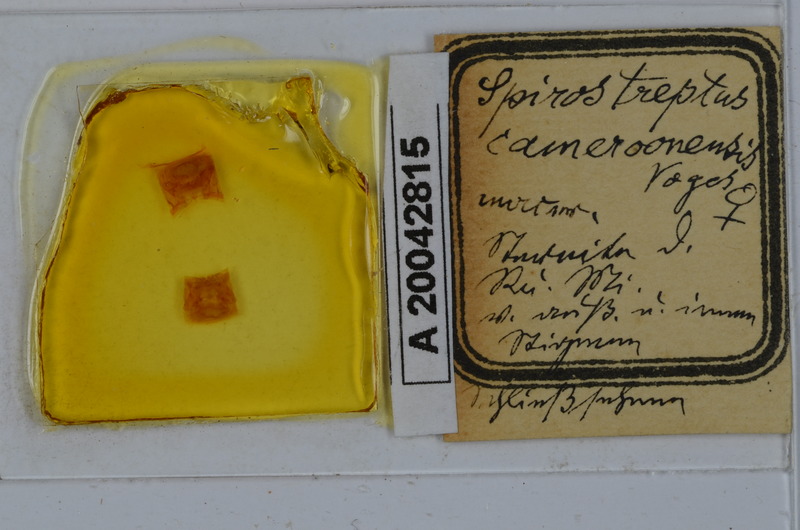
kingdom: Animalia
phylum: Arthropoda
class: Diplopoda
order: Spirostreptida
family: Spirostreptidae
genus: Kartinikus
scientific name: Kartinikus laevis
